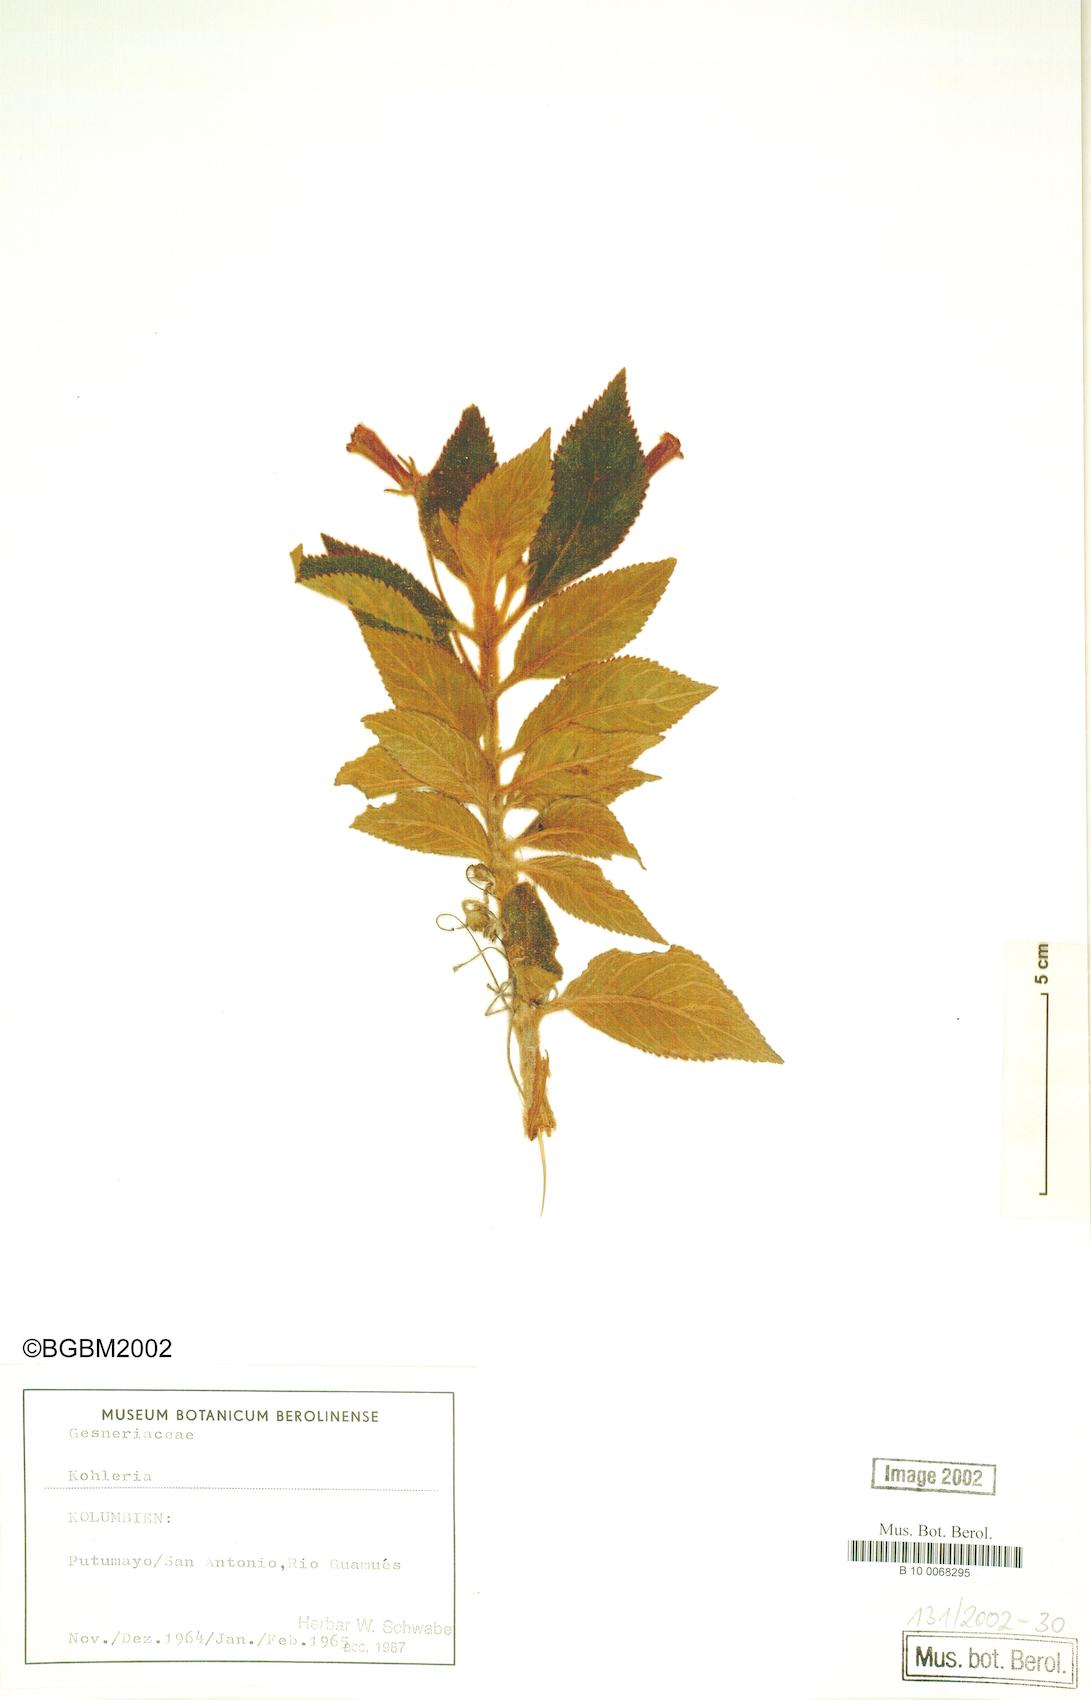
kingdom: Plantae
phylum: Tracheophyta
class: Magnoliopsida
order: Lamiales
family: Gesneriaceae
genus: Kohleria
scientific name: Kohleria
